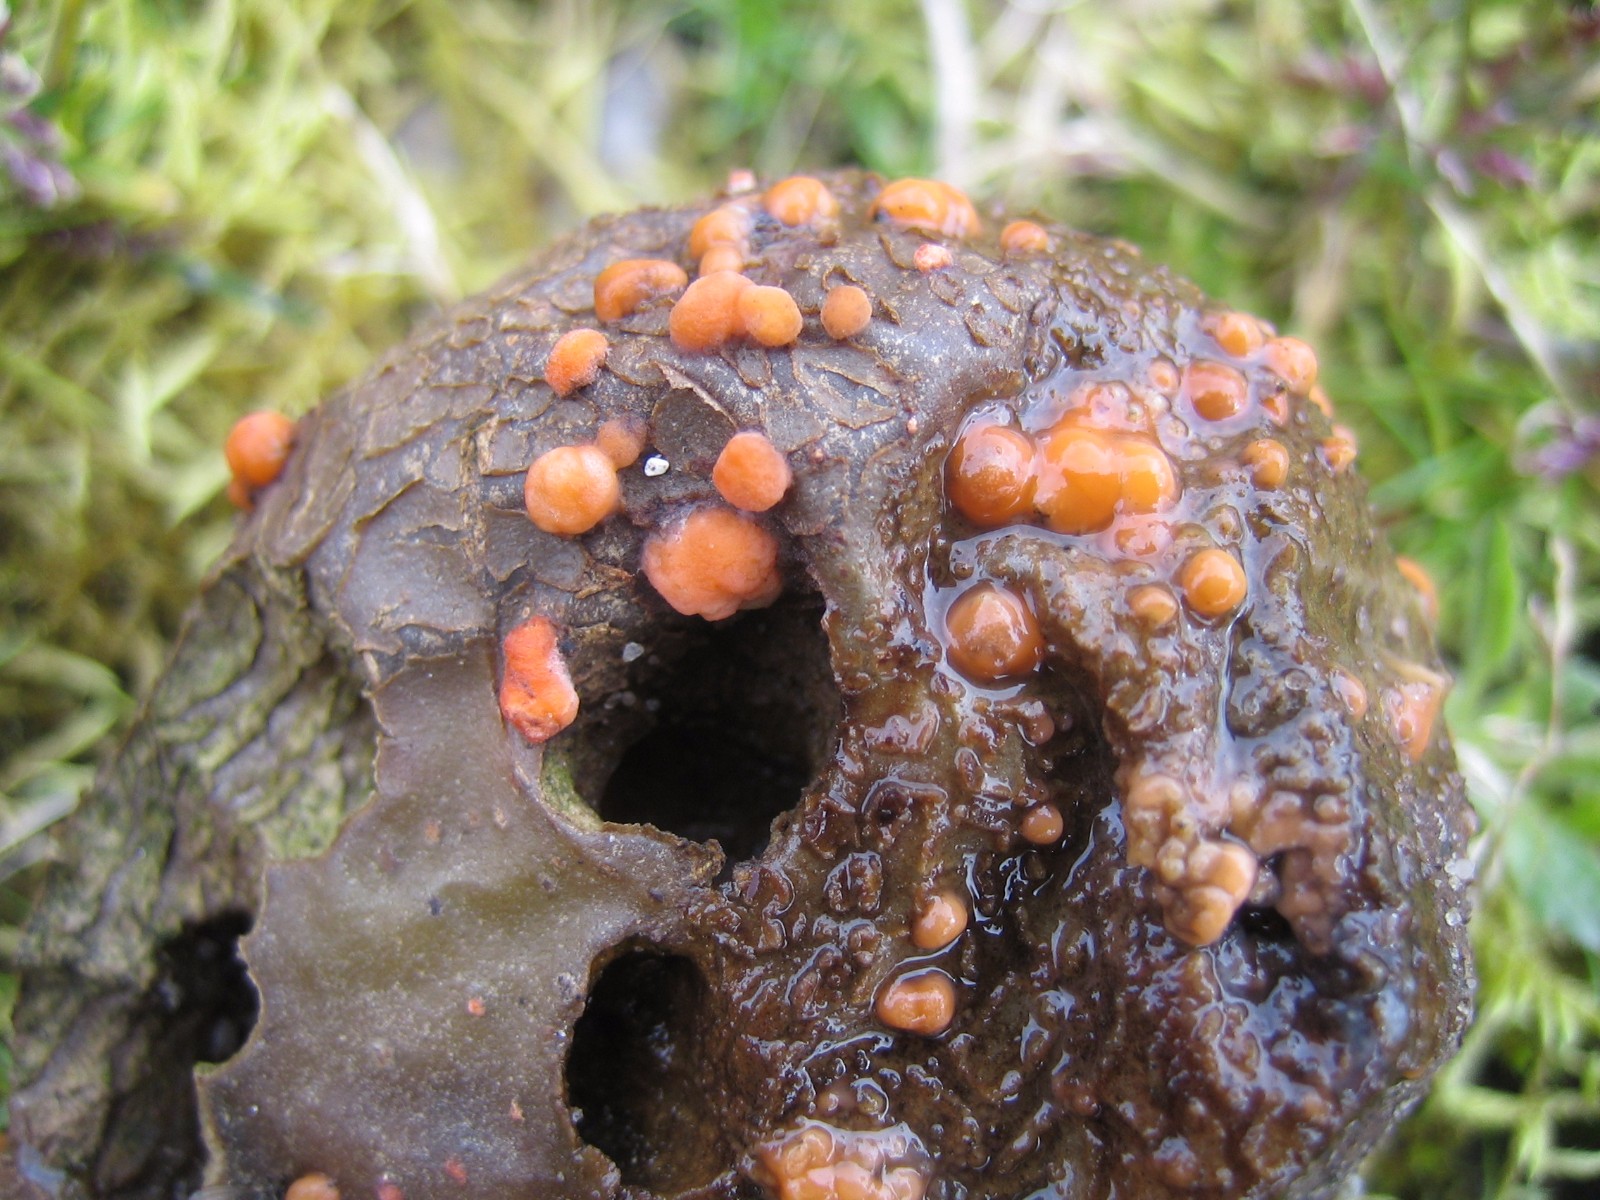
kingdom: Fungi
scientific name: Fungi
